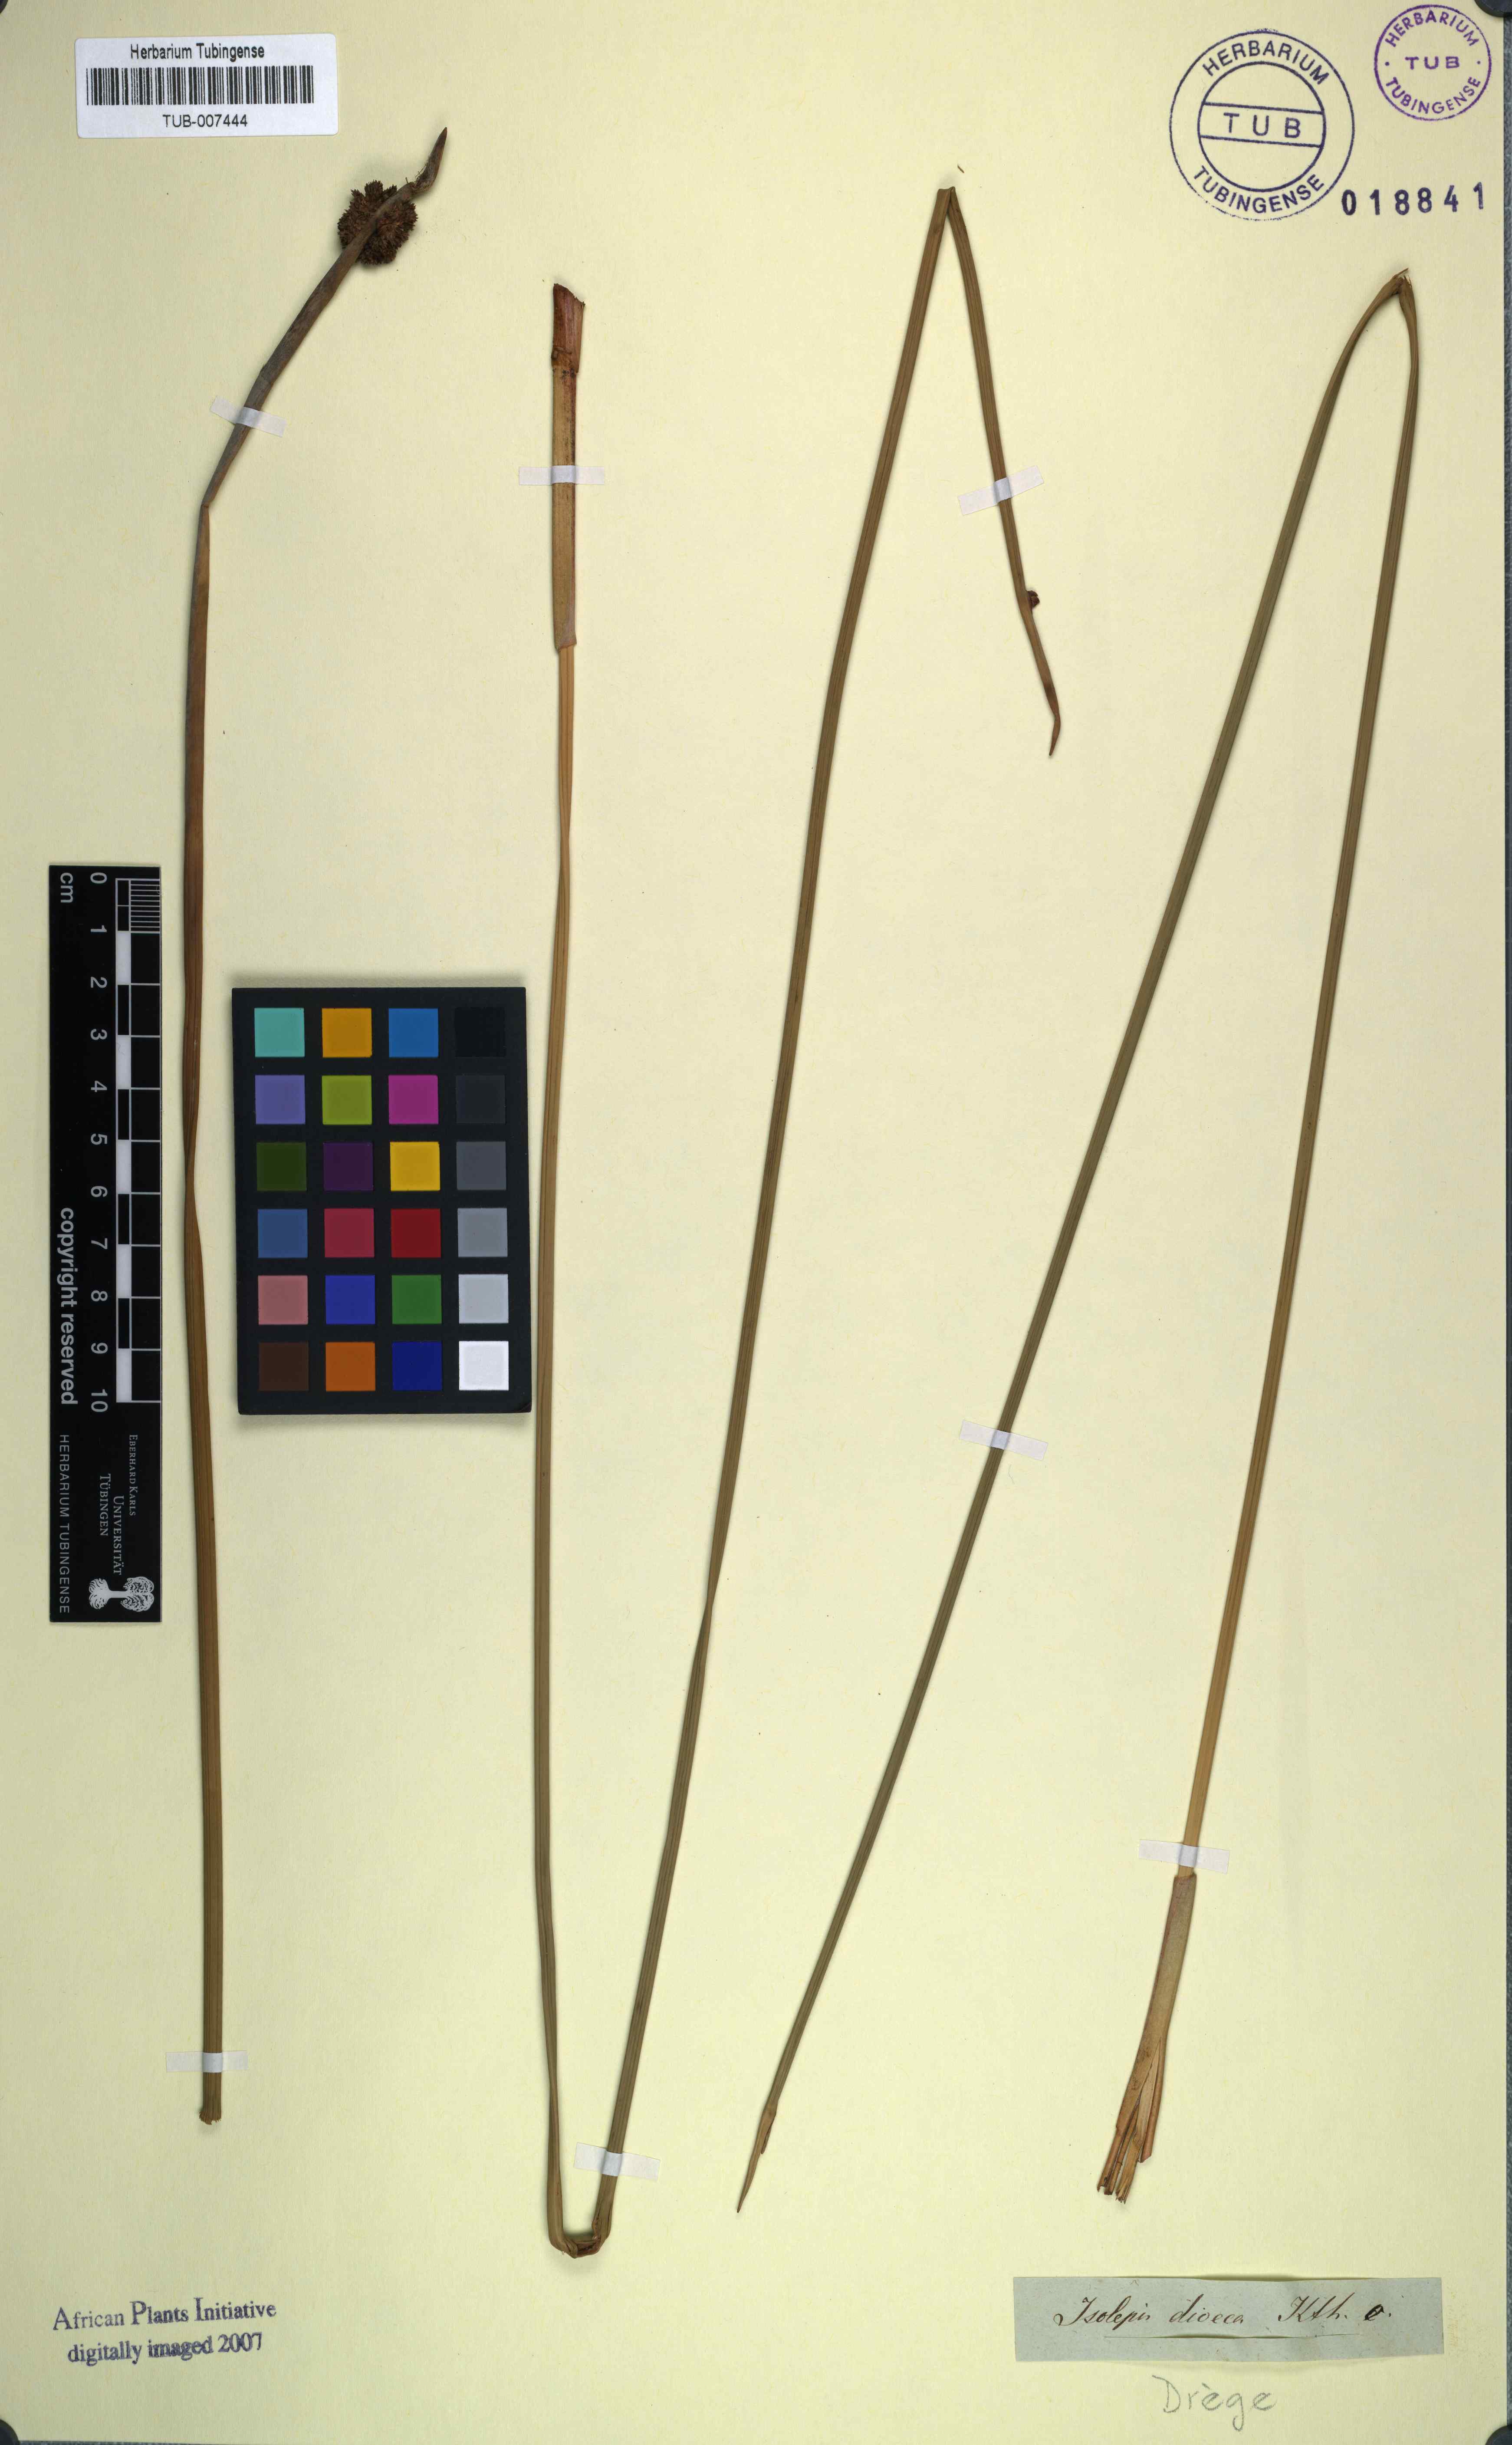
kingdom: Plantae
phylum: Tracheophyta
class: Liliopsida
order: Poales
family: Cyperaceae
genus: Afroscirpoides
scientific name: Afroscirpoides dioeca
